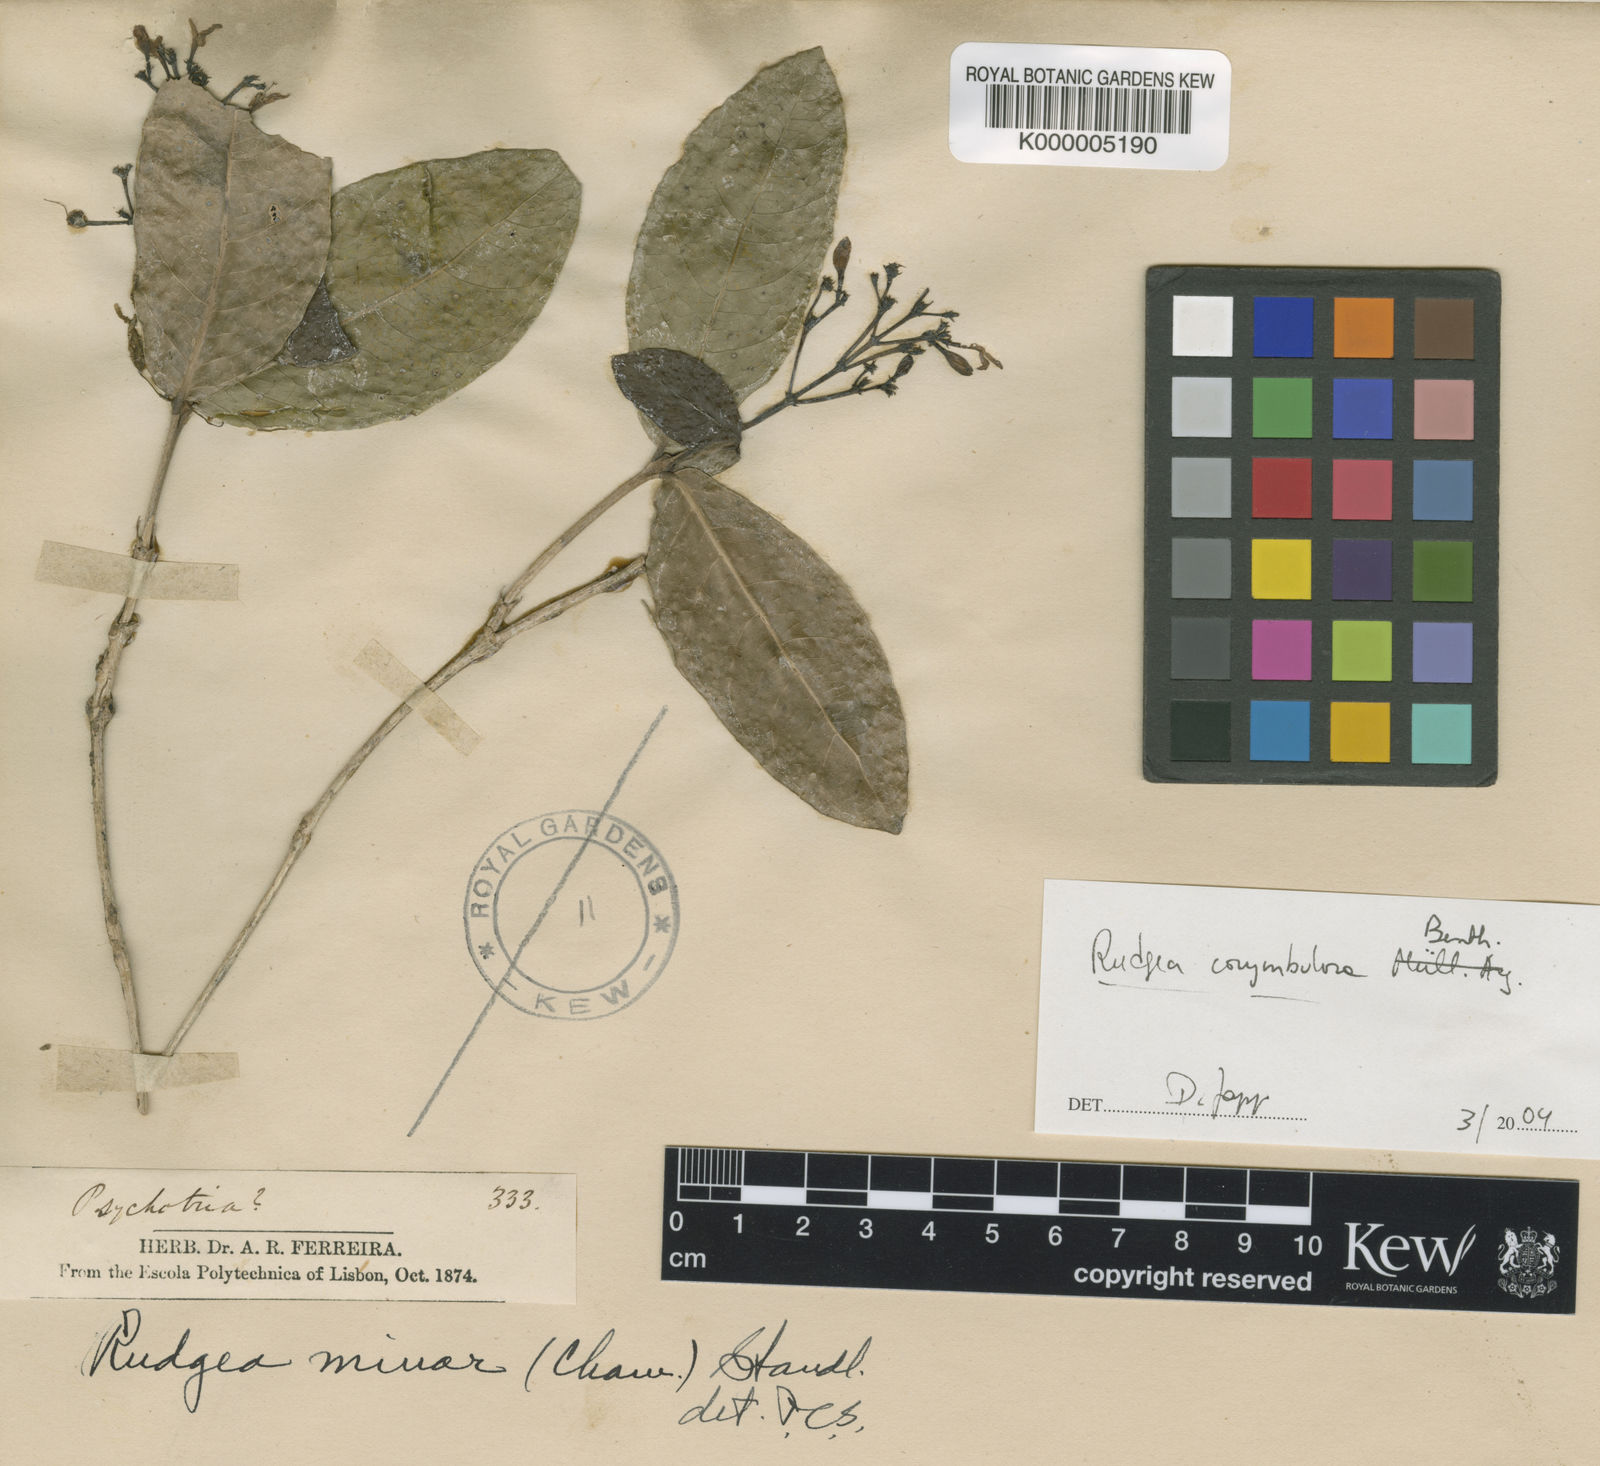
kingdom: Plantae
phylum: Tracheophyta
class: Magnoliopsida
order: Gentianales
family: Rubiaceae
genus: Rudgea
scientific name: Rudgea corymbulosa
